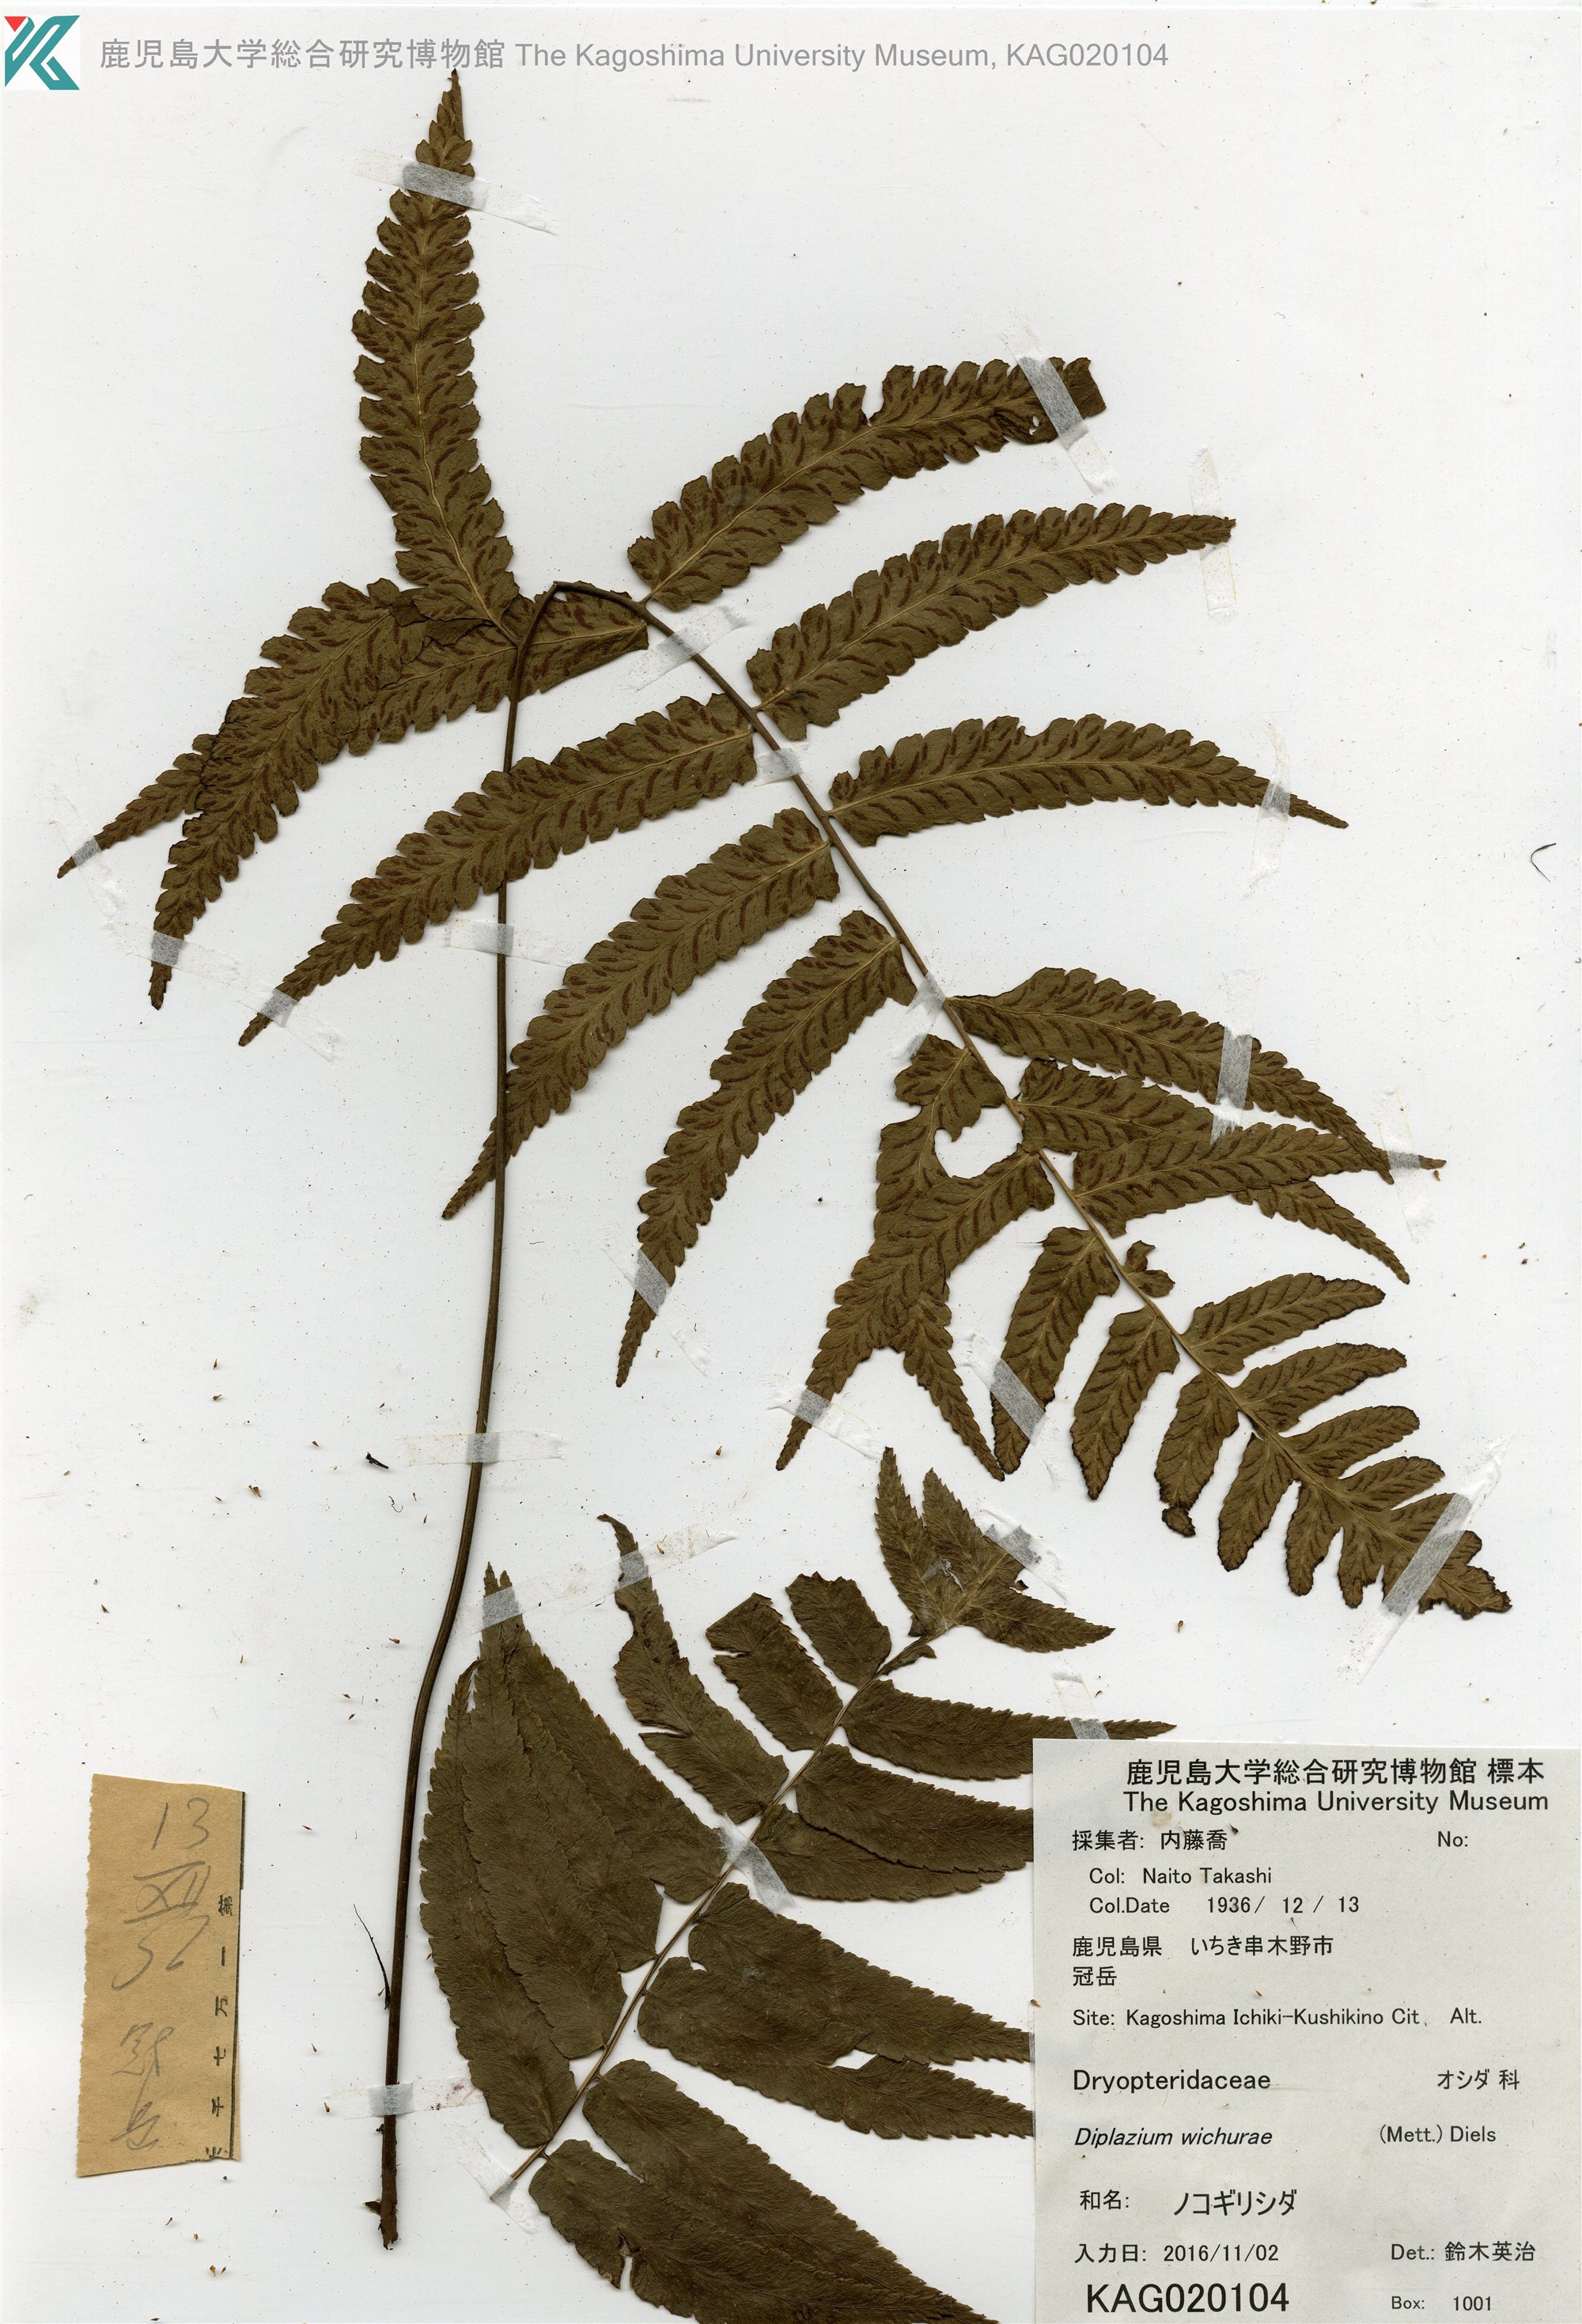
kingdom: Plantae
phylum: Tracheophyta
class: Polypodiopsida
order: Polypodiales
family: Athyriaceae
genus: Diplazium
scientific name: Diplazium wichurae
